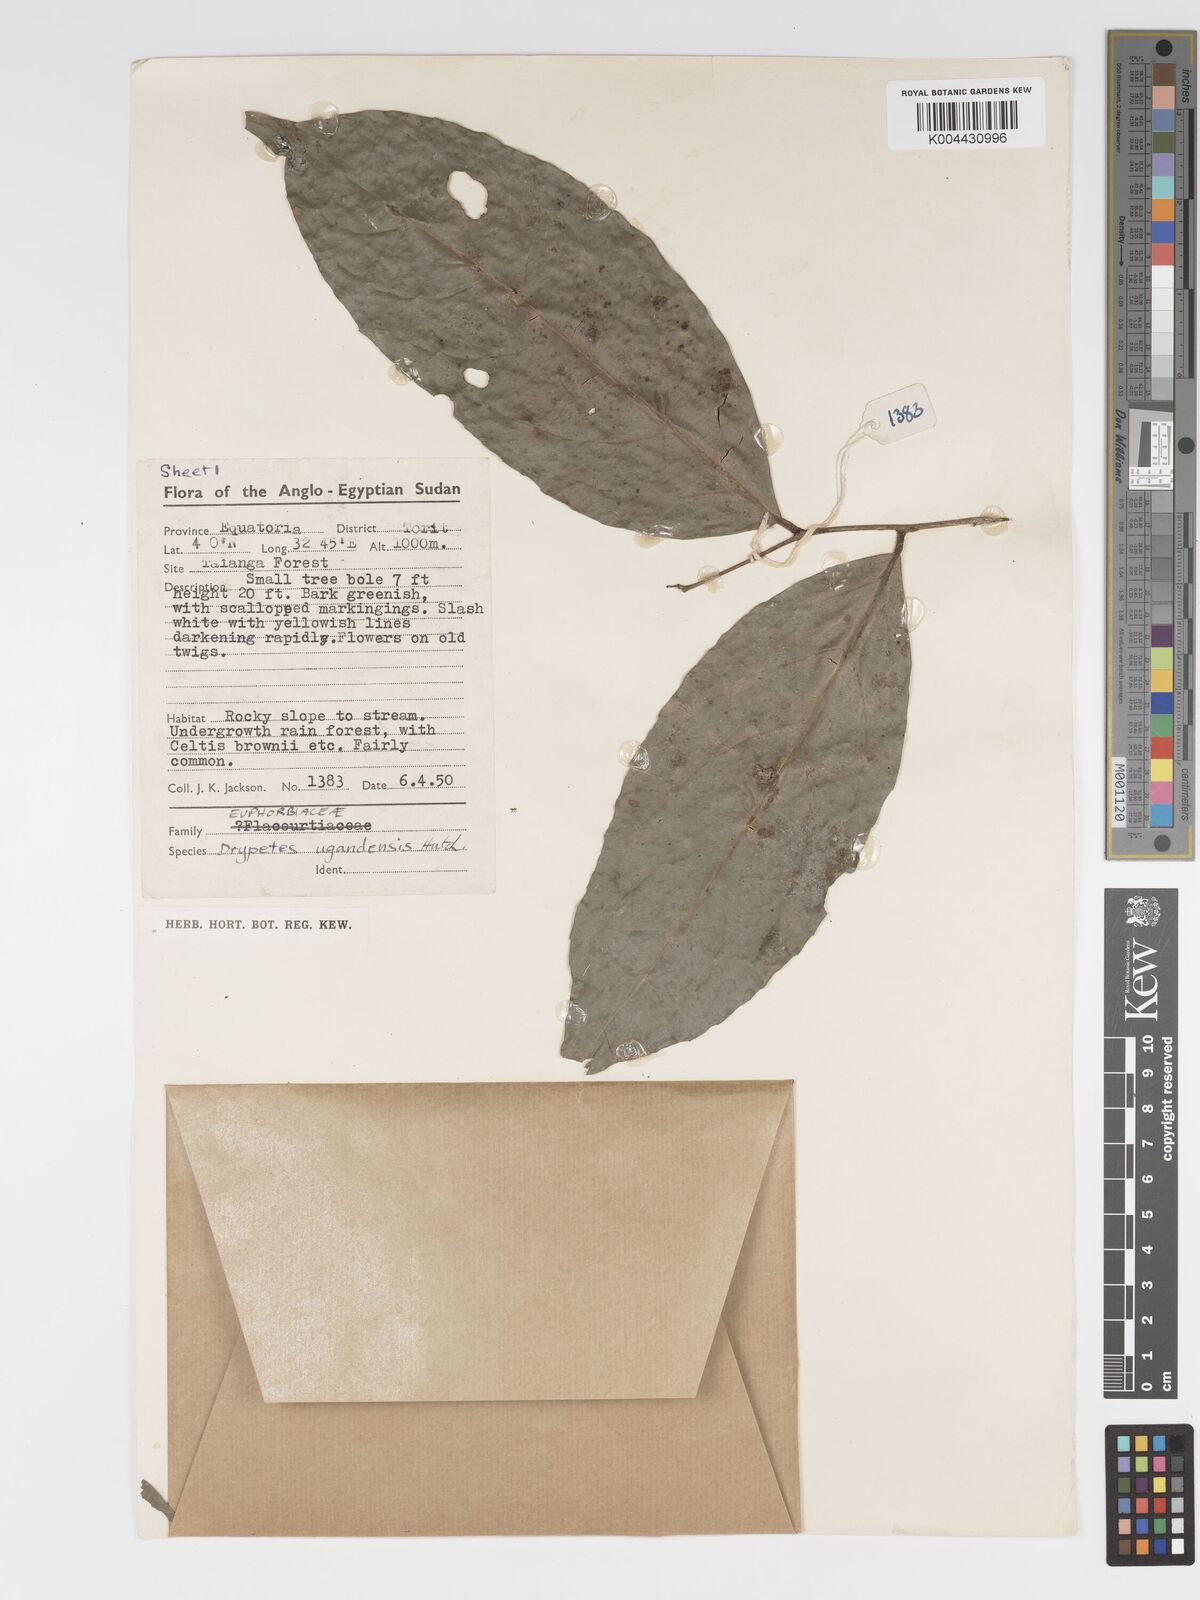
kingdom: Plantae
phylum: Tracheophyta
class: Magnoliopsida
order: Malpighiales
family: Putranjivaceae
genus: Drypetes
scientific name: Drypetes ugandensis
